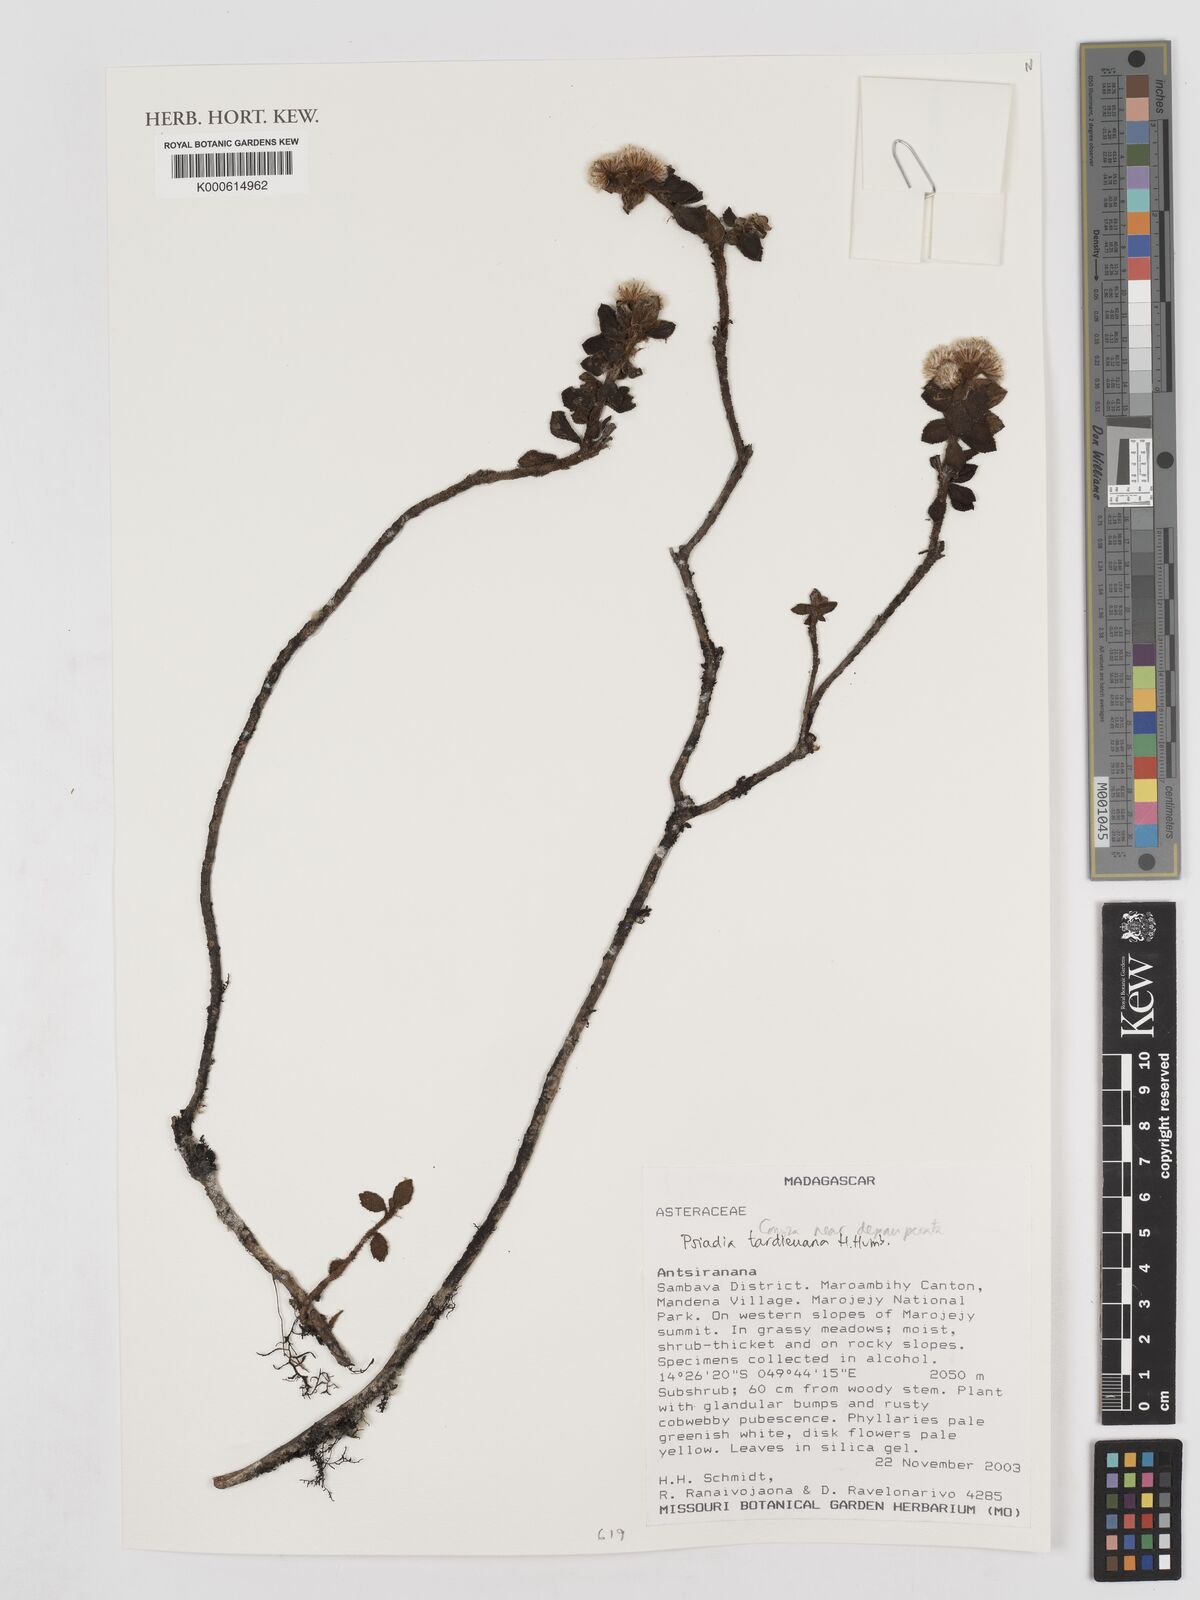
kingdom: Plantae
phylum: Tracheophyta
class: Magnoliopsida
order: Asterales
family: Asteraceae
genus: Psiadia
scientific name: Psiadia tardieuana
